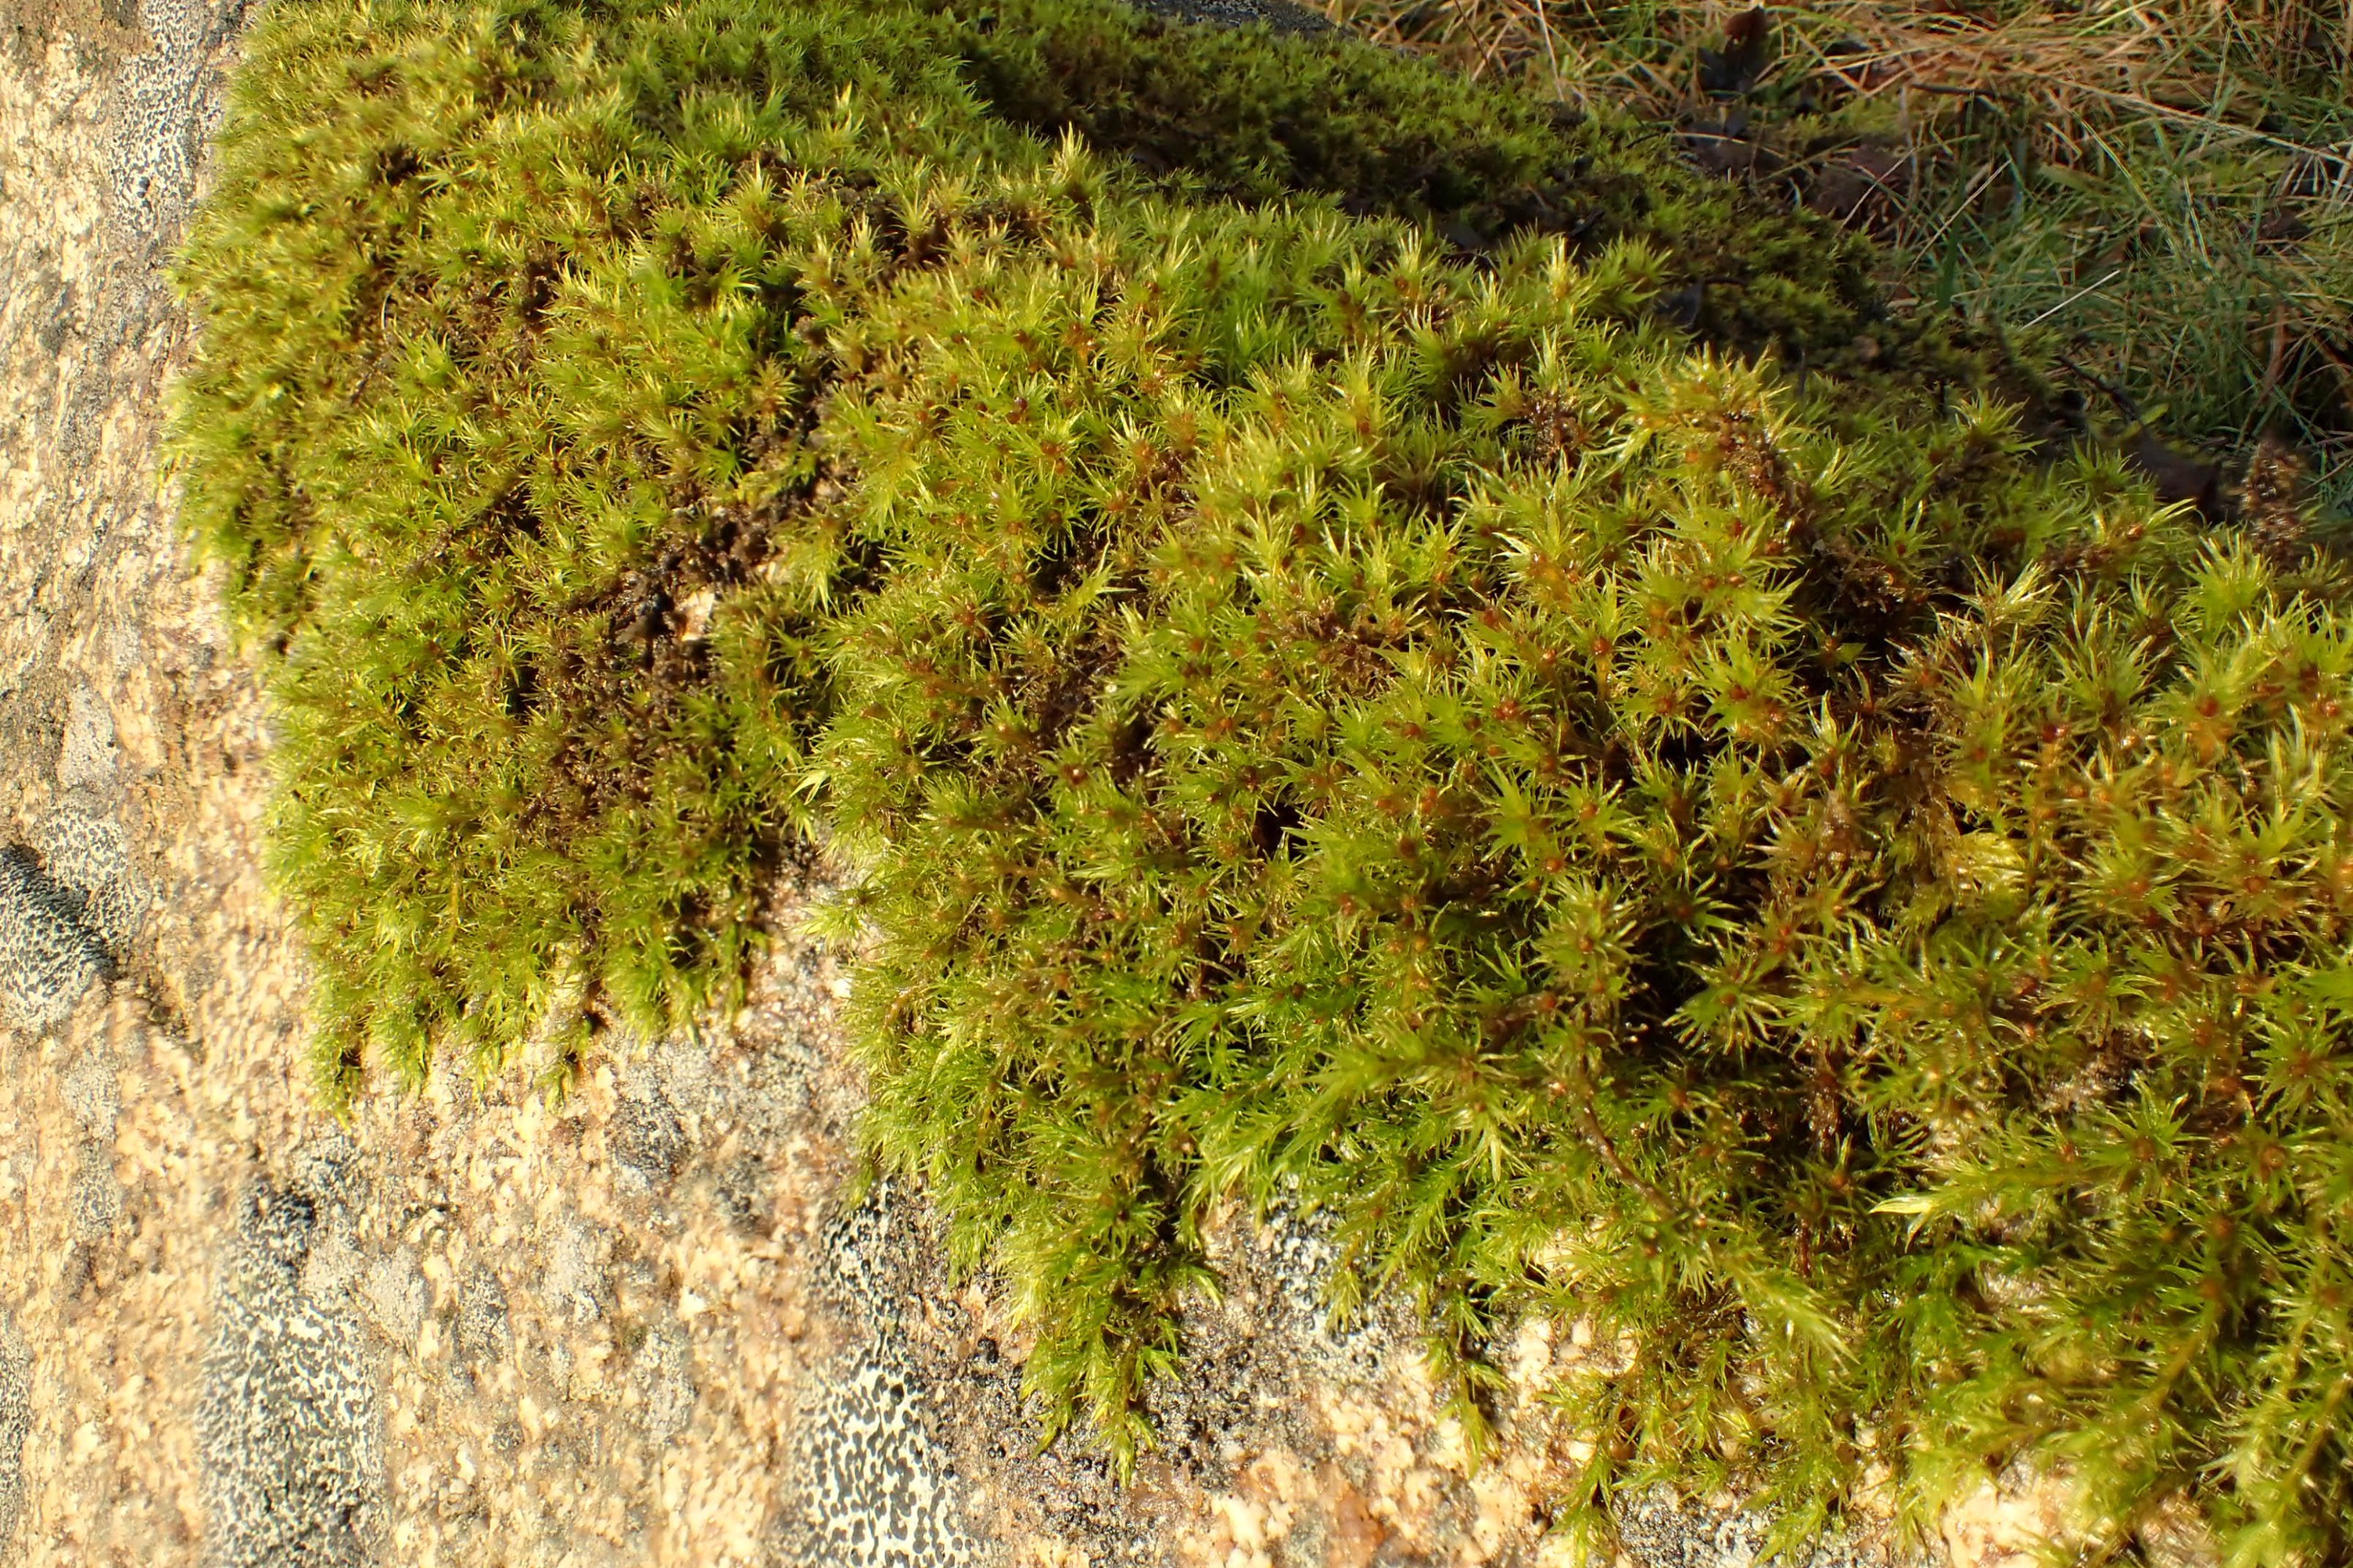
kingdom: Plantae
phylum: Bryophyta
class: Bryopsida
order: Grimmiales
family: Grimmiaceae
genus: Dilutineuron
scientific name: Dilutineuron fasciculare
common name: Knippe-børstemos
